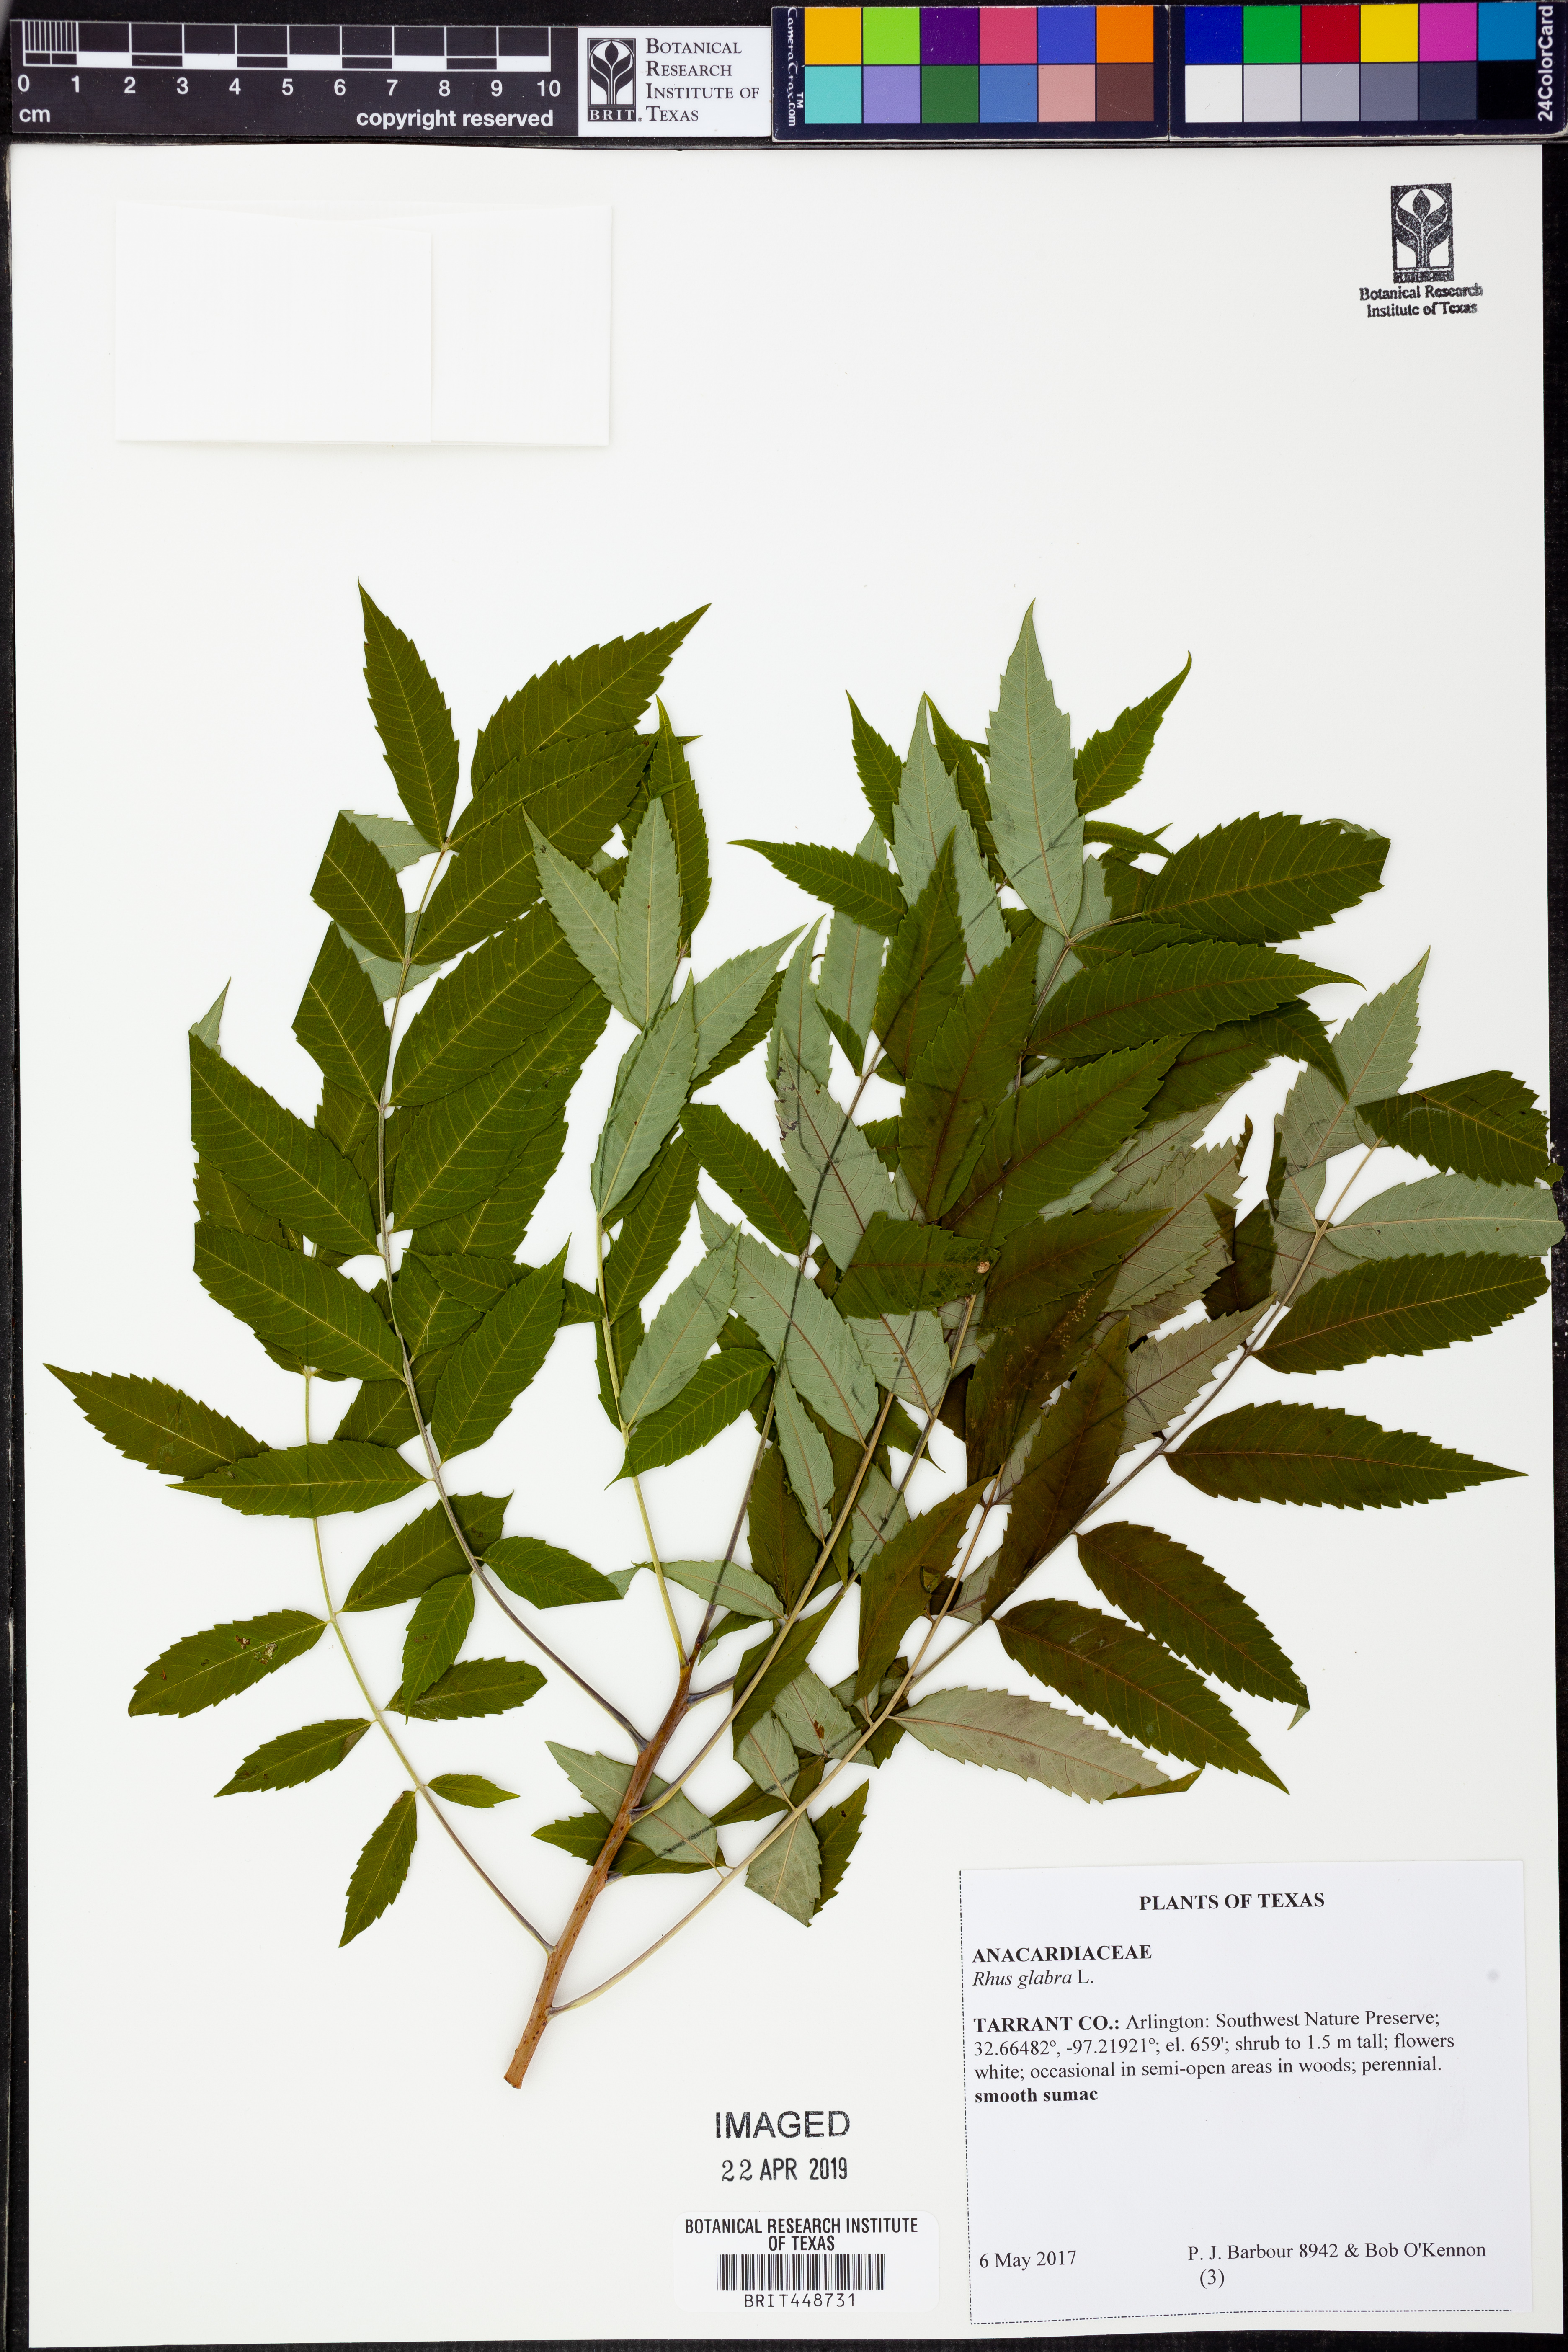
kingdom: Plantae
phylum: Tracheophyta
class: Magnoliopsida
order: Sapindales
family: Anacardiaceae
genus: Rhus
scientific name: Rhus glabra
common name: Scarlet sumac
